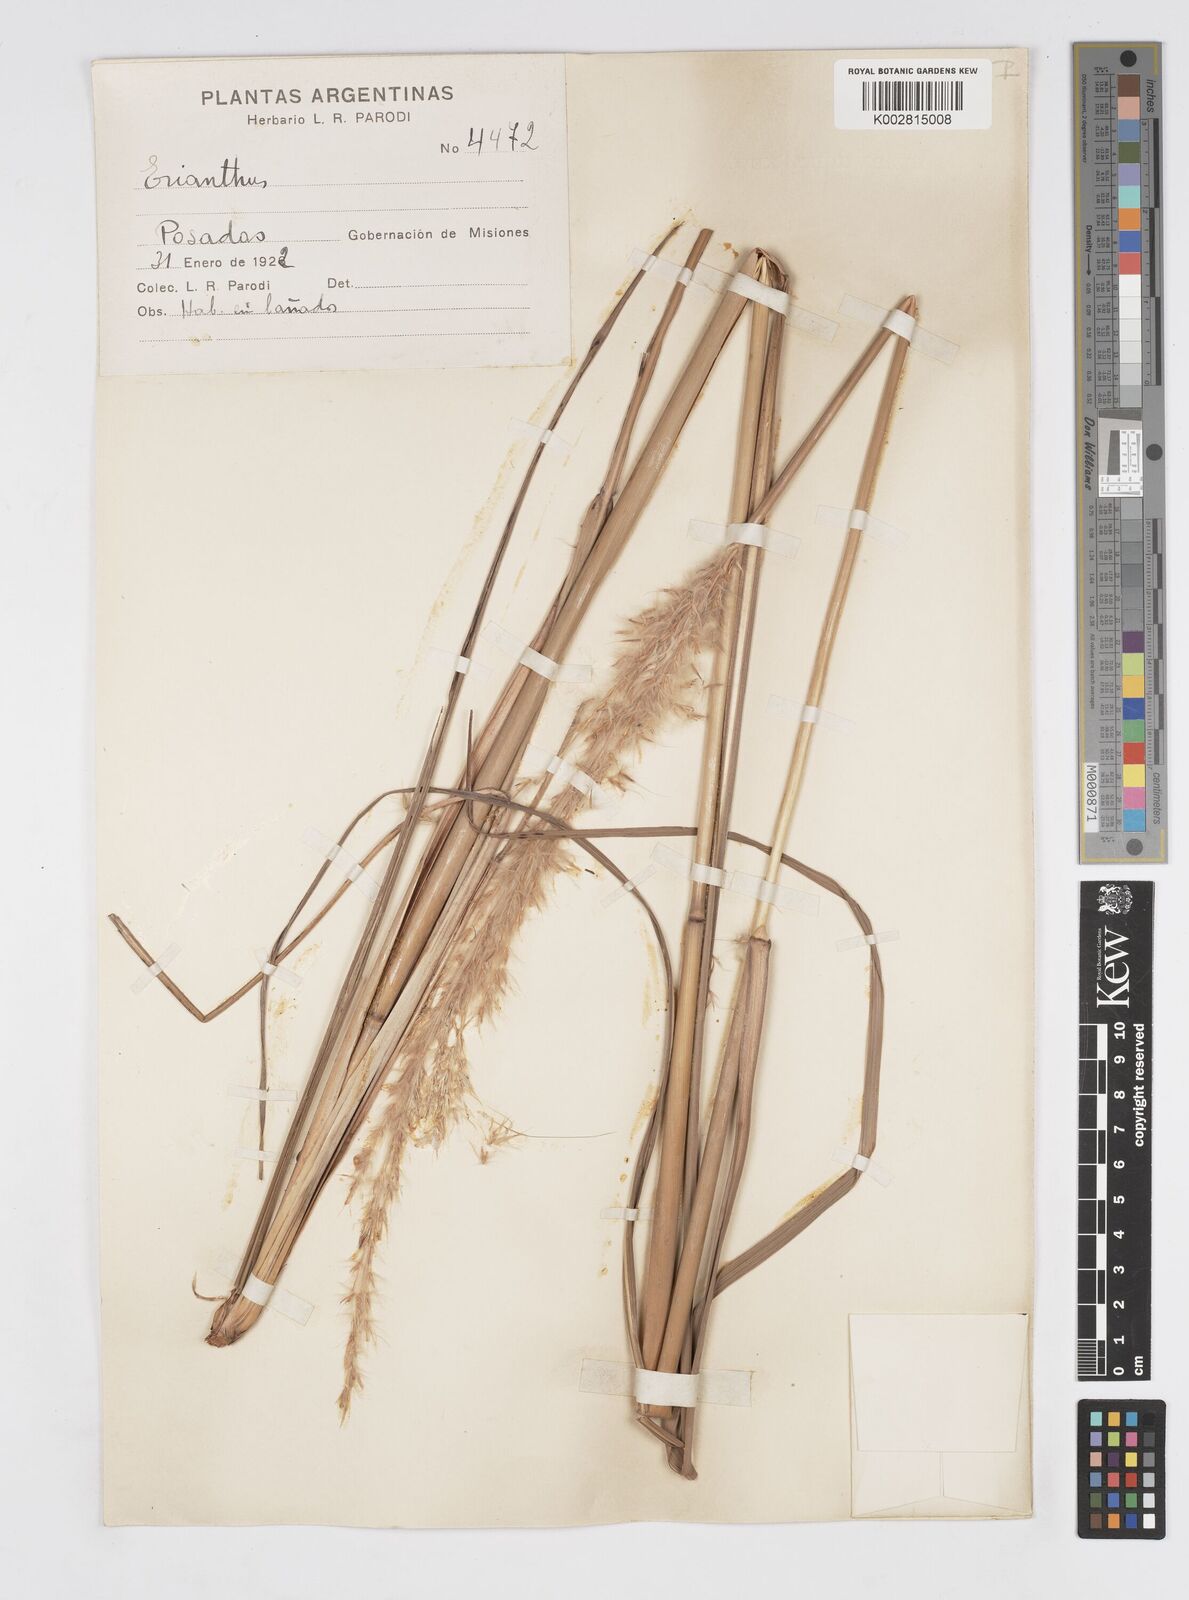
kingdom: Plantae
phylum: Tracheophyta
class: Liliopsida
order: Poales
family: Poaceae
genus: Saccharum
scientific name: Saccharum angustifolium
